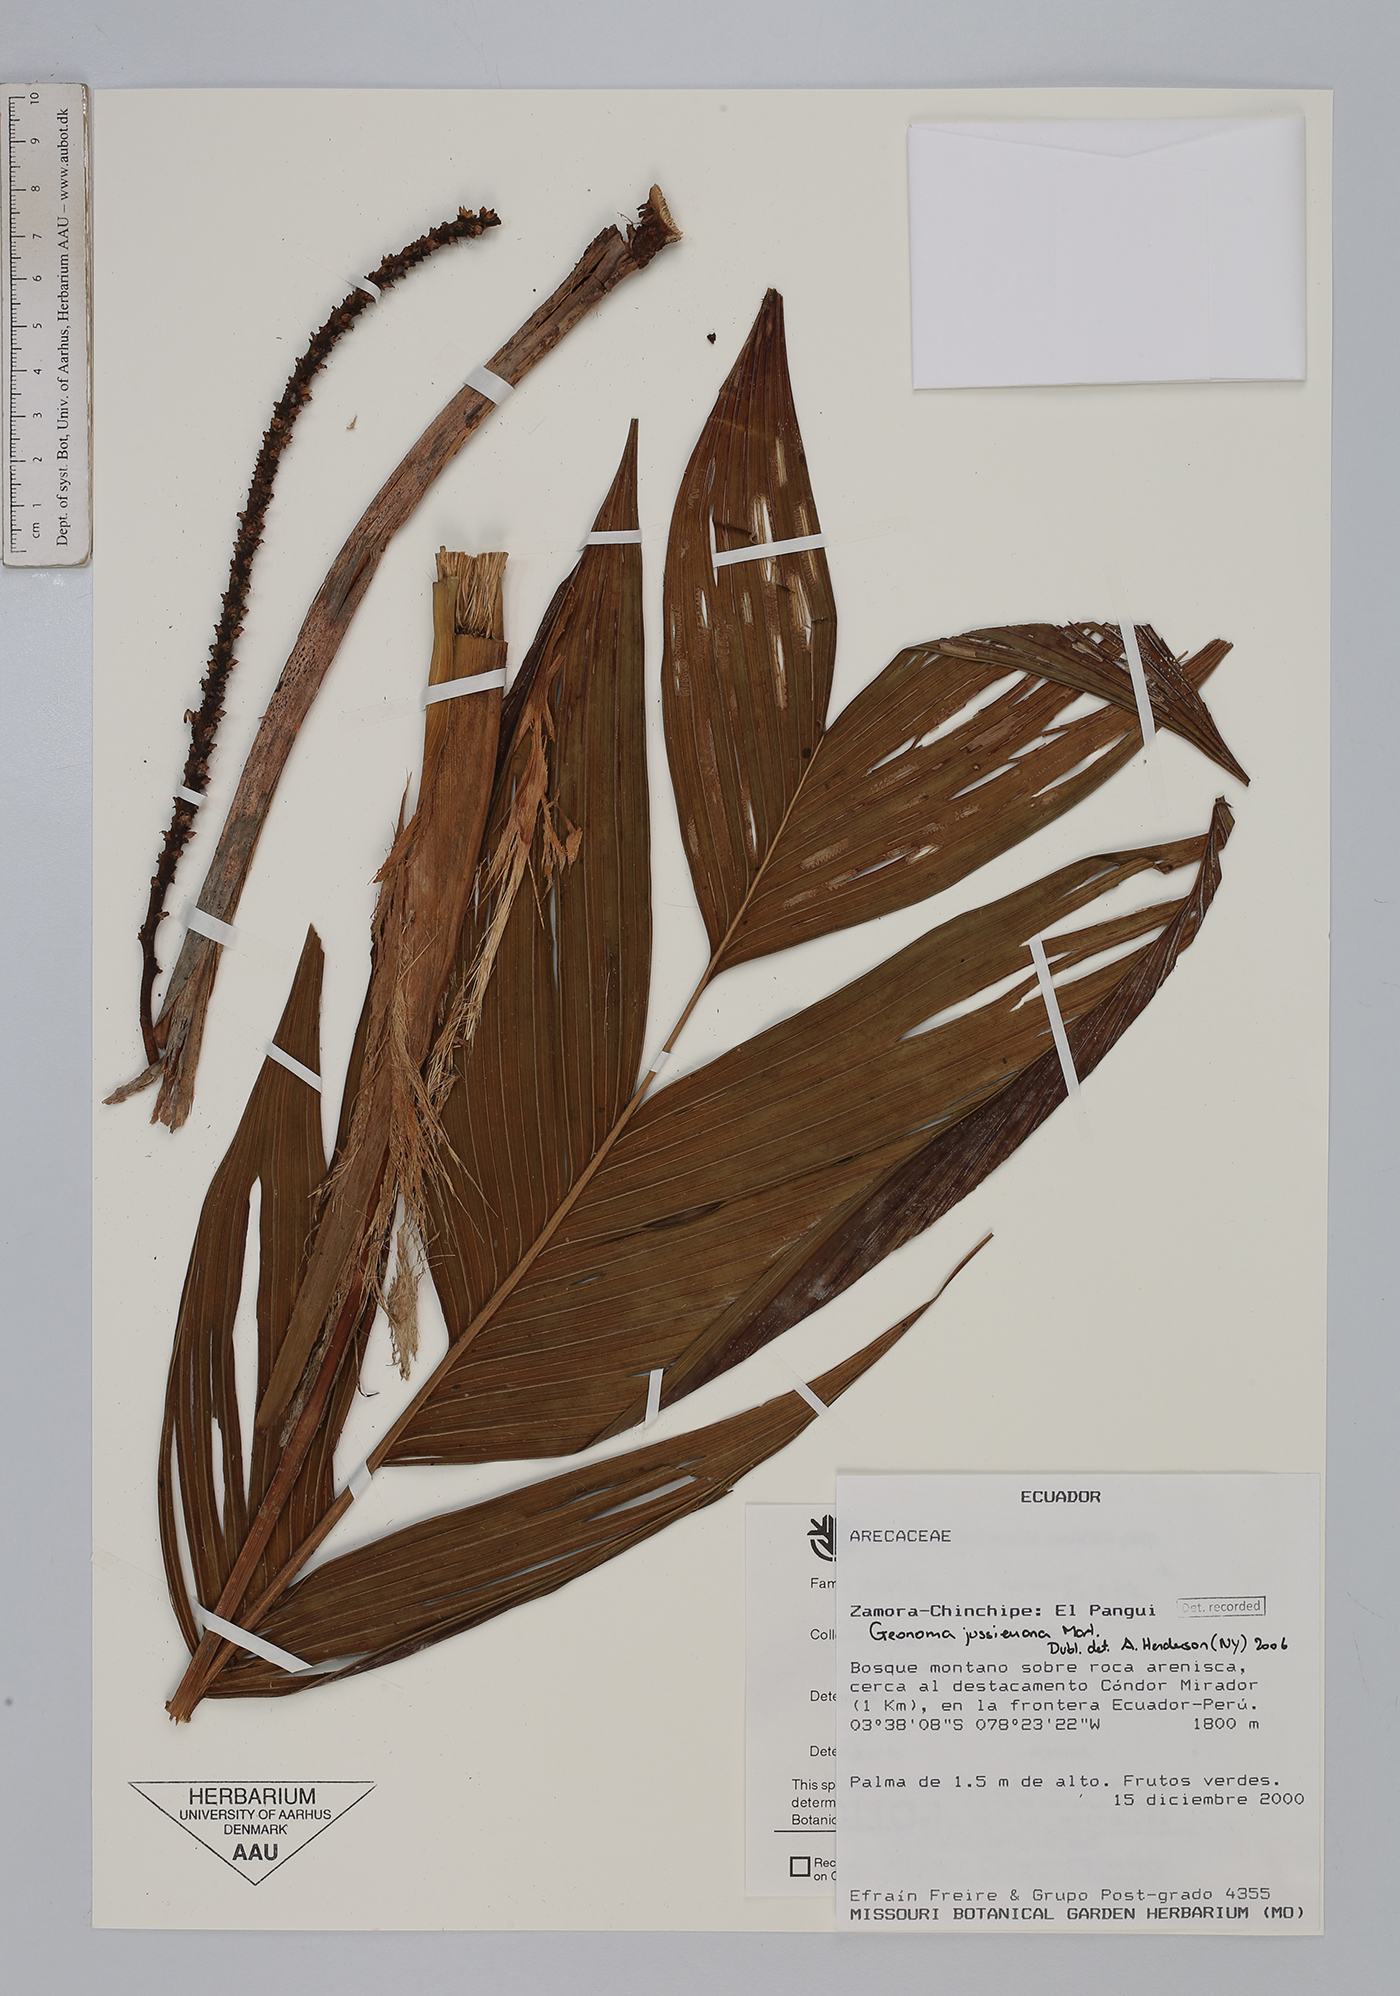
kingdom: Plantae
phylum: Tracheophyta
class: Liliopsida
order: Arecales
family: Arecaceae
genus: Geonoma
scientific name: Geonoma orbignyana
